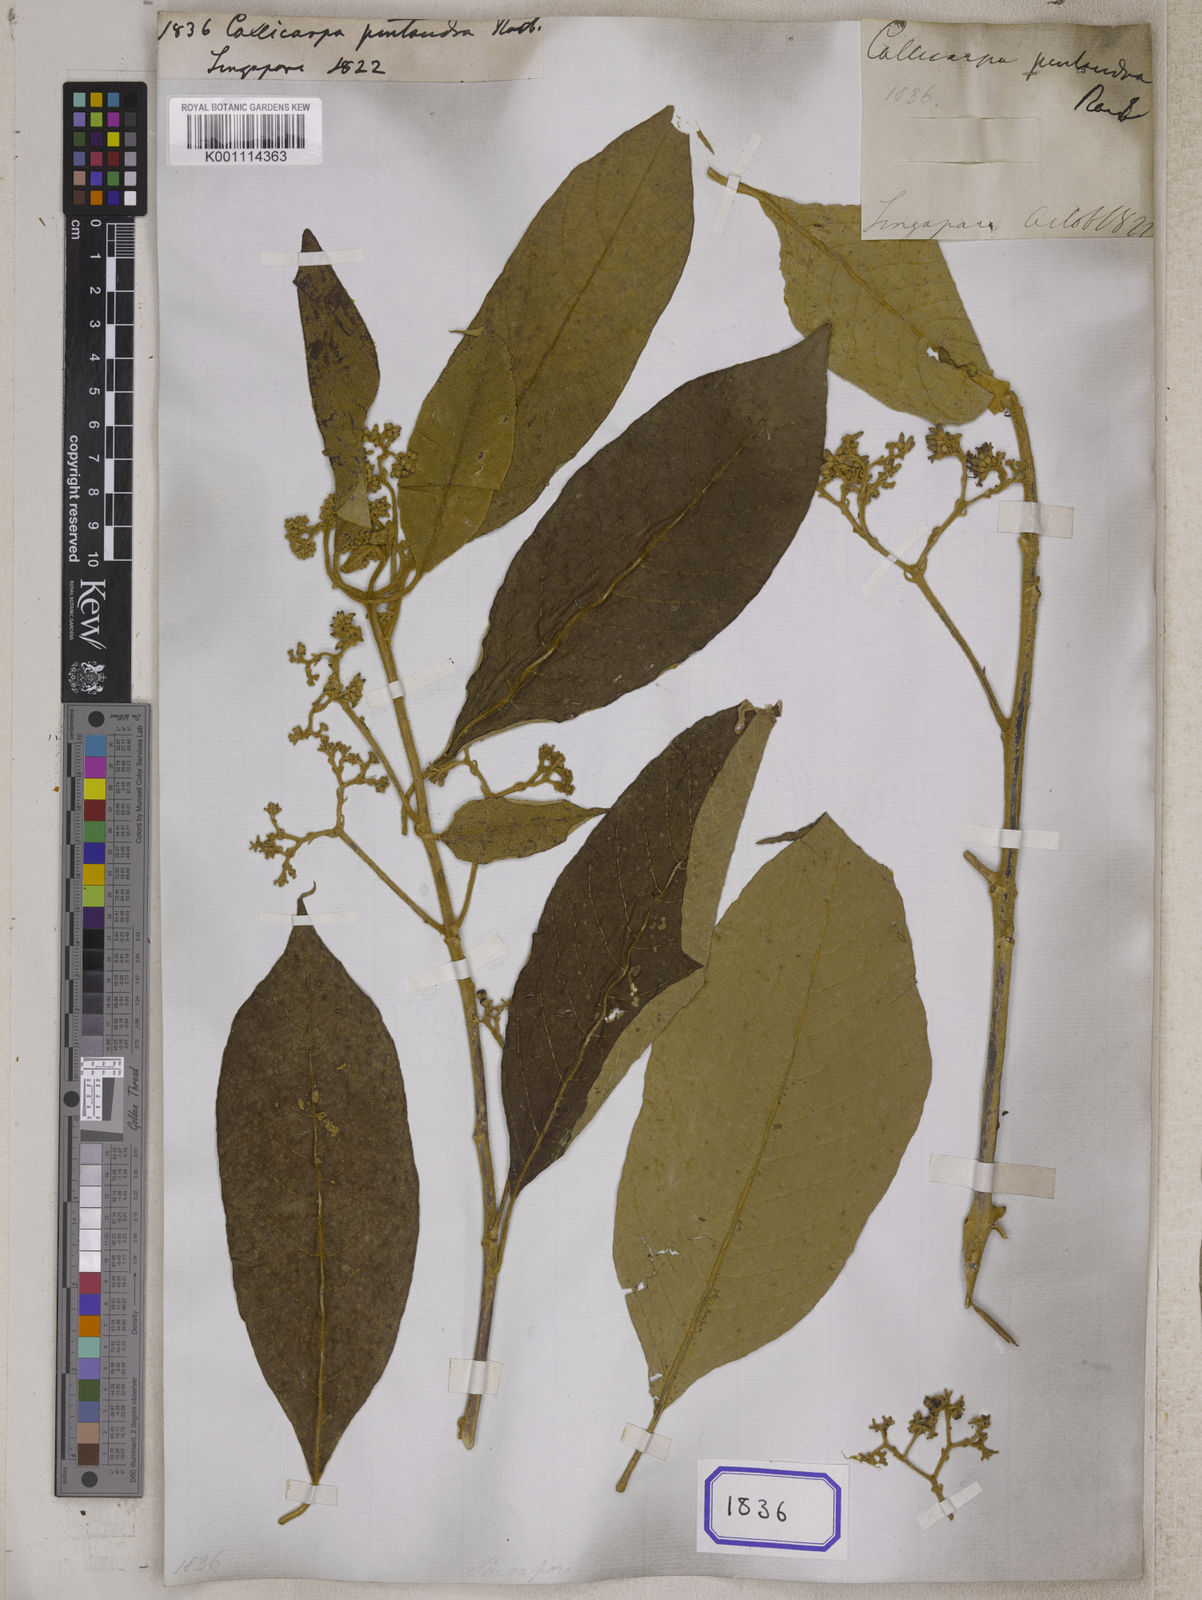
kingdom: Plantae
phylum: Tracheophyta
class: Magnoliopsida
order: Lamiales
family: Lamiaceae
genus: Callicarpa
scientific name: Callicarpa pentandra
